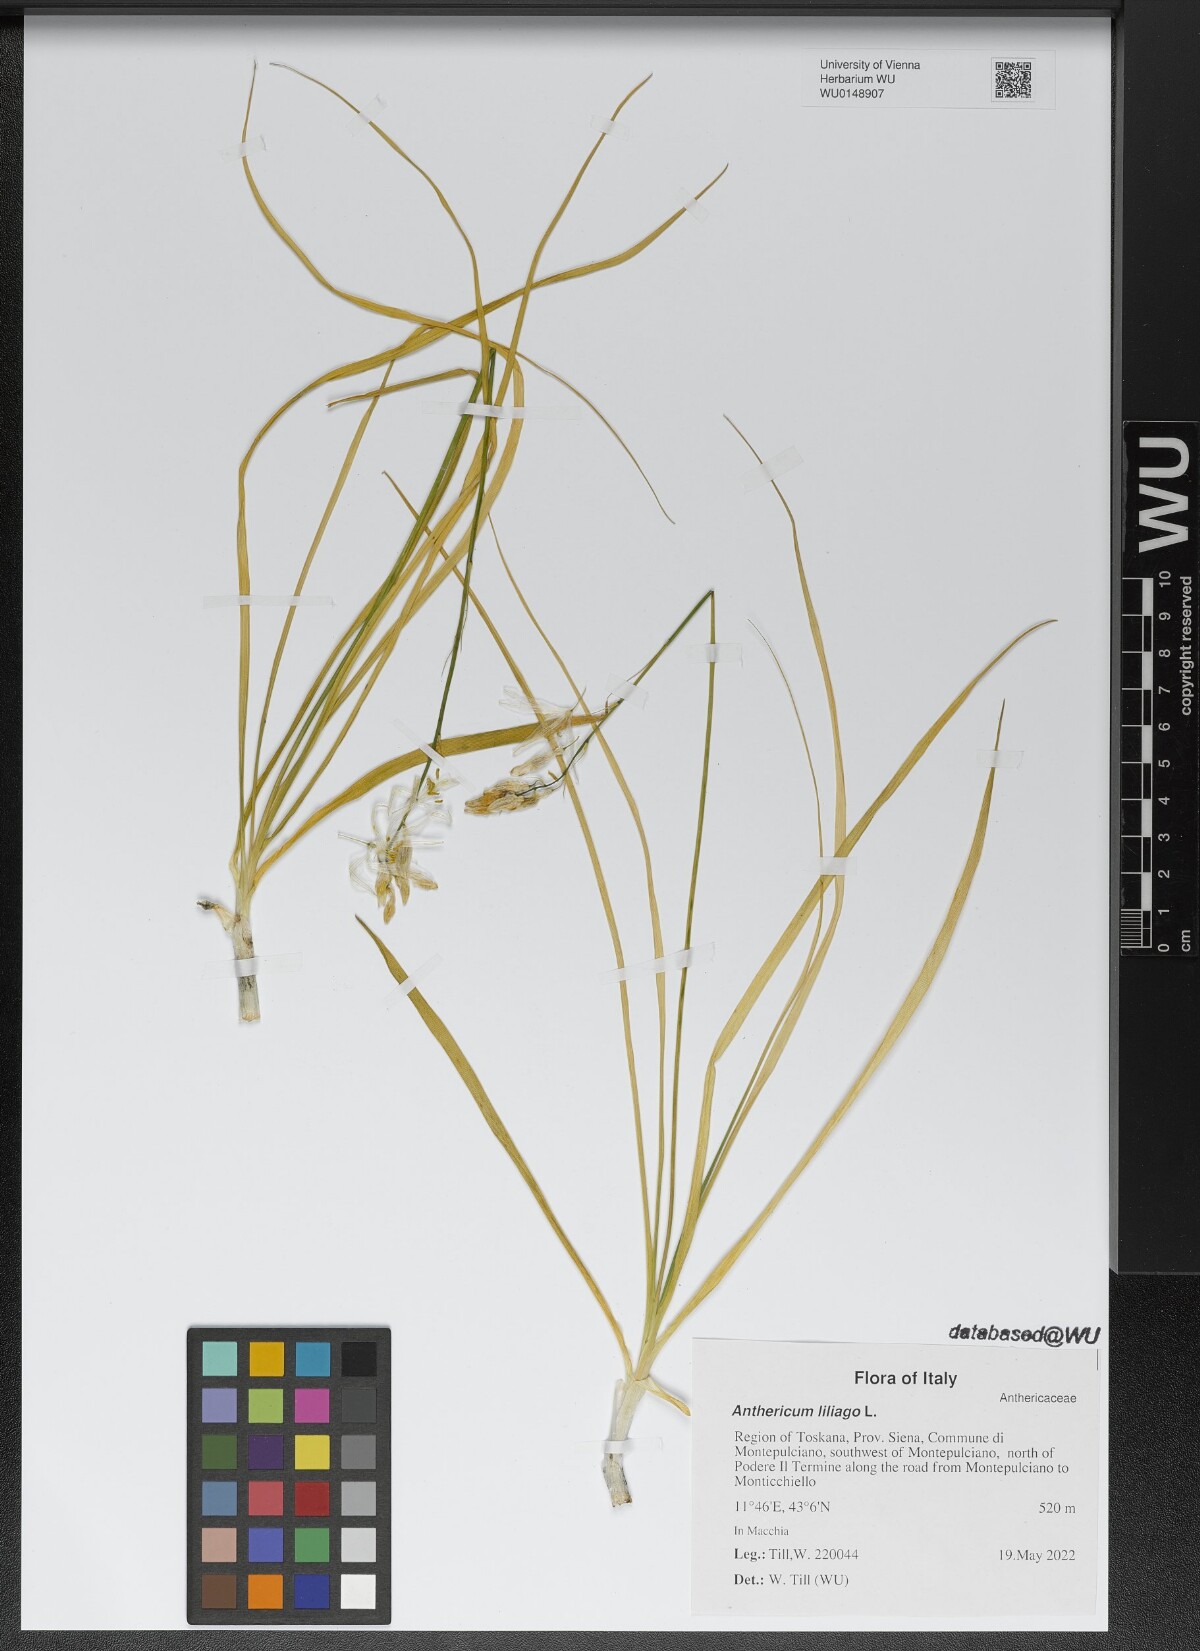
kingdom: Plantae
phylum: Tracheophyta
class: Liliopsida
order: Asparagales
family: Asparagaceae
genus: Anthericum
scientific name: Anthericum liliago
